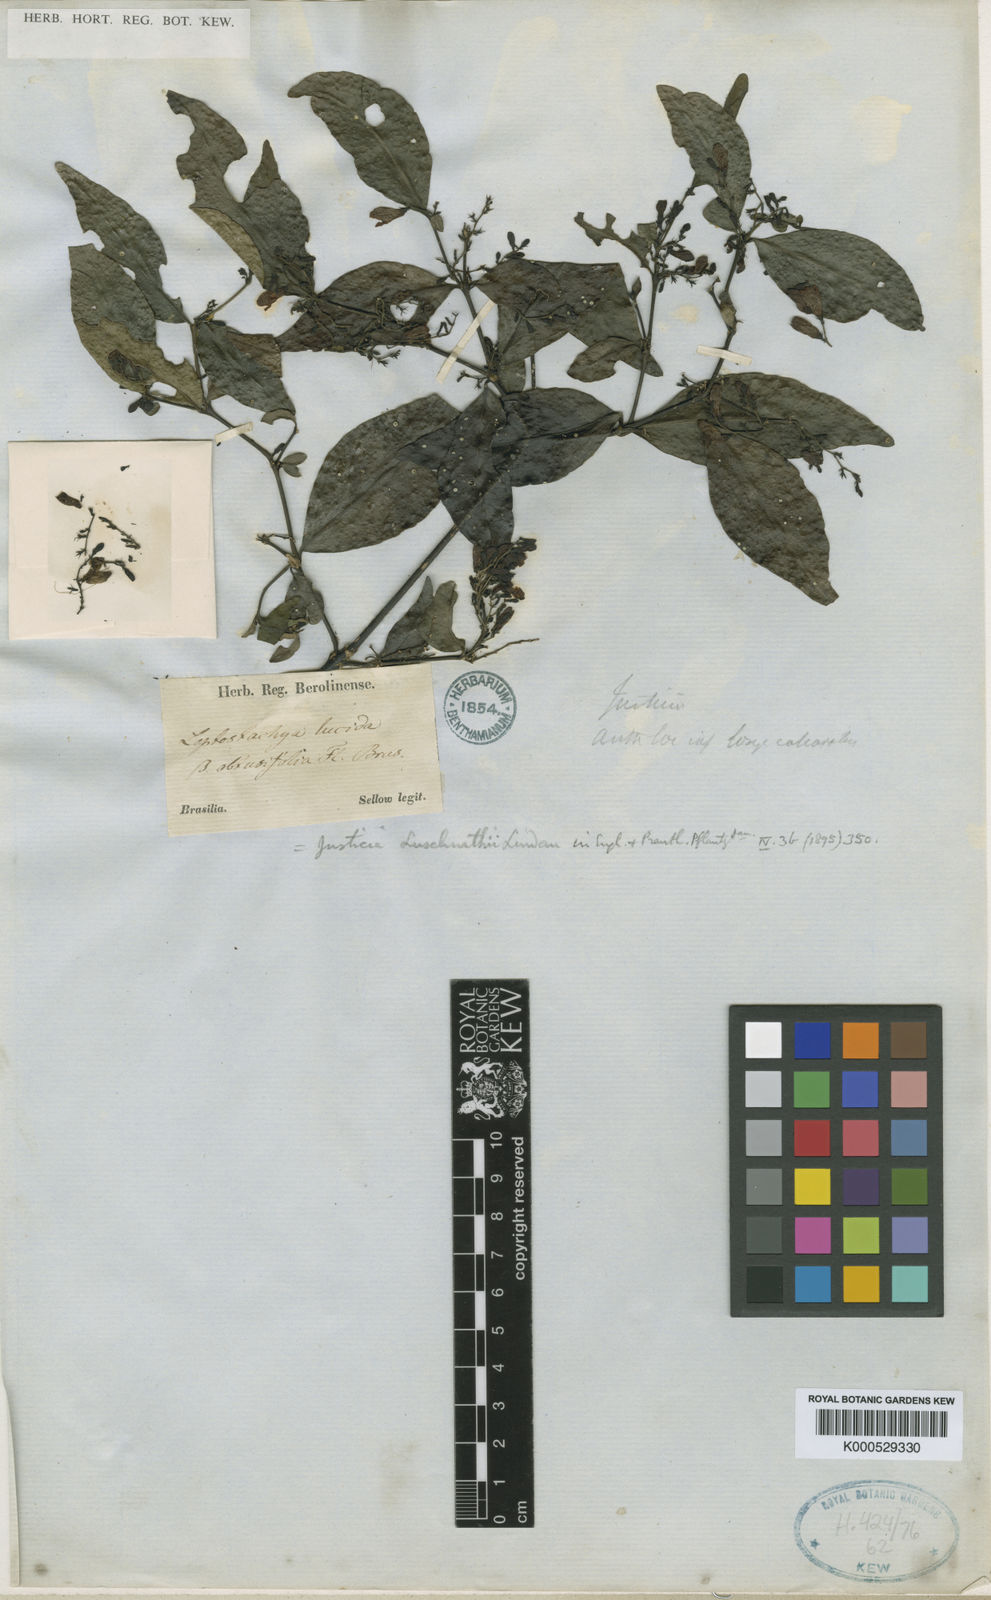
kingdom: Plantae
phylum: Tracheophyta
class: Magnoliopsida
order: Lamiales
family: Acanthaceae
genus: Justicia
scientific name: Justicia luschnathii
